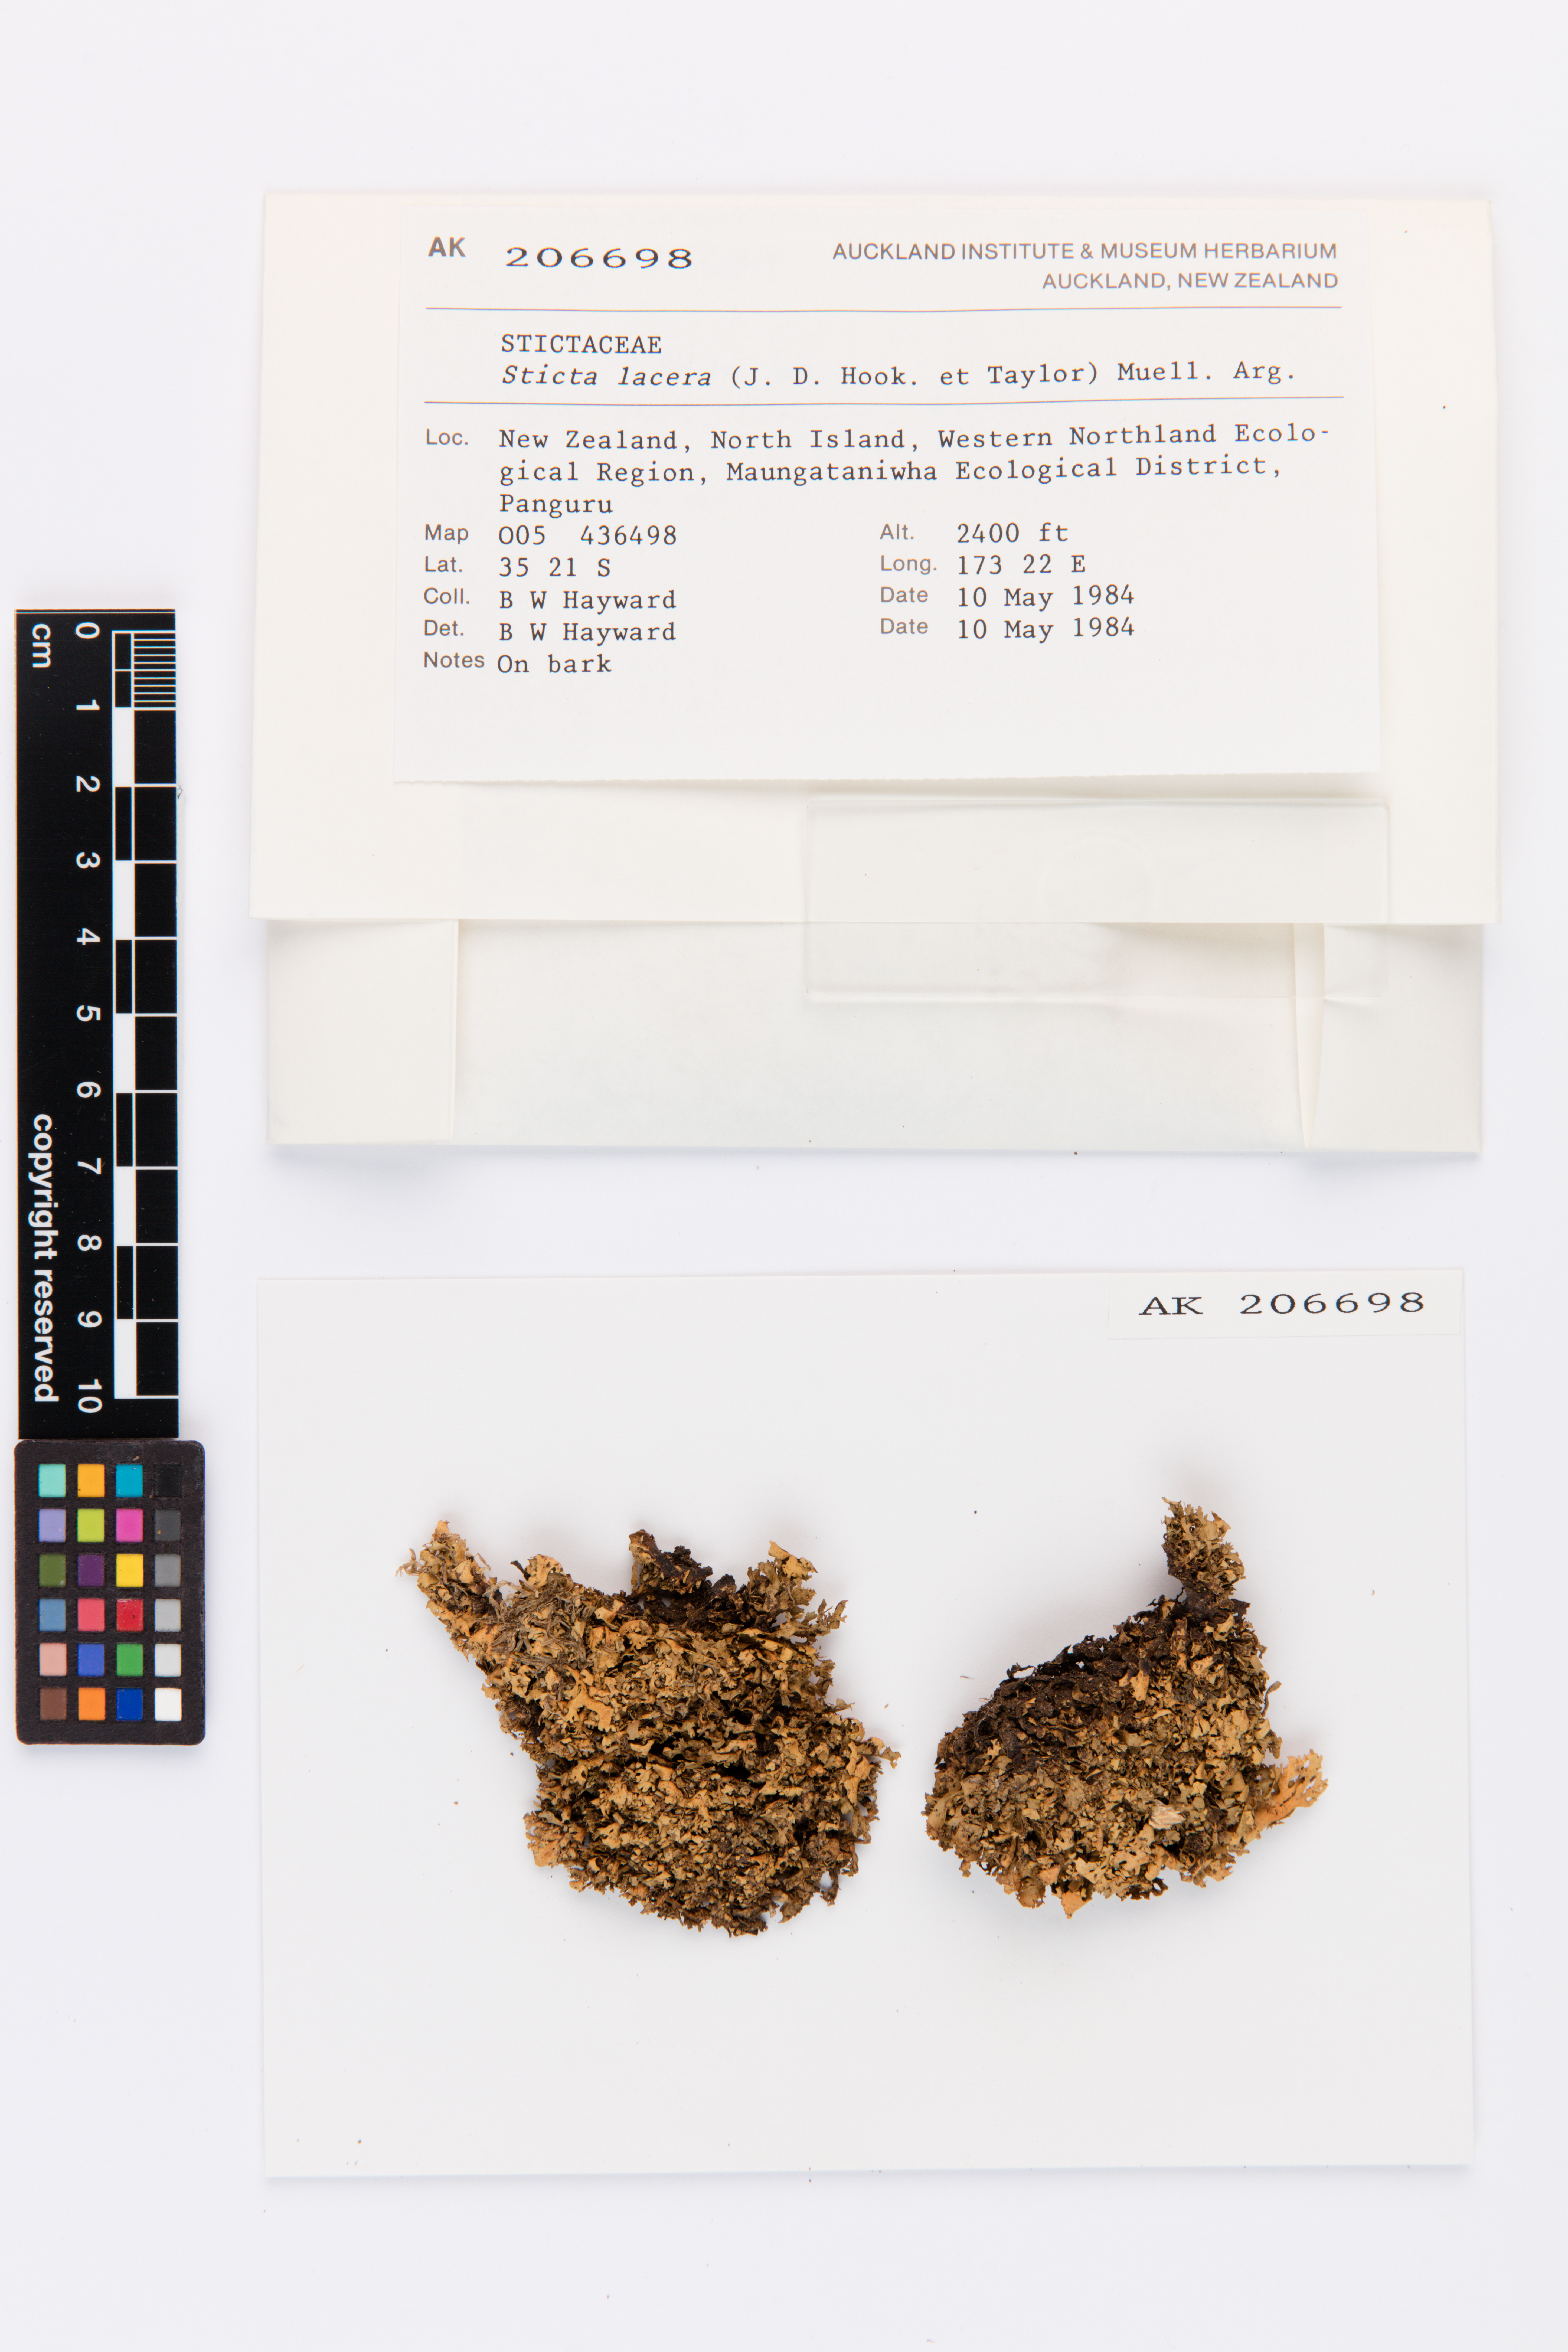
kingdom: Fungi
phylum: Ascomycota
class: Lecanoromycetes
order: Peltigerales
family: Lobariaceae
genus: Sticta
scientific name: Sticta
